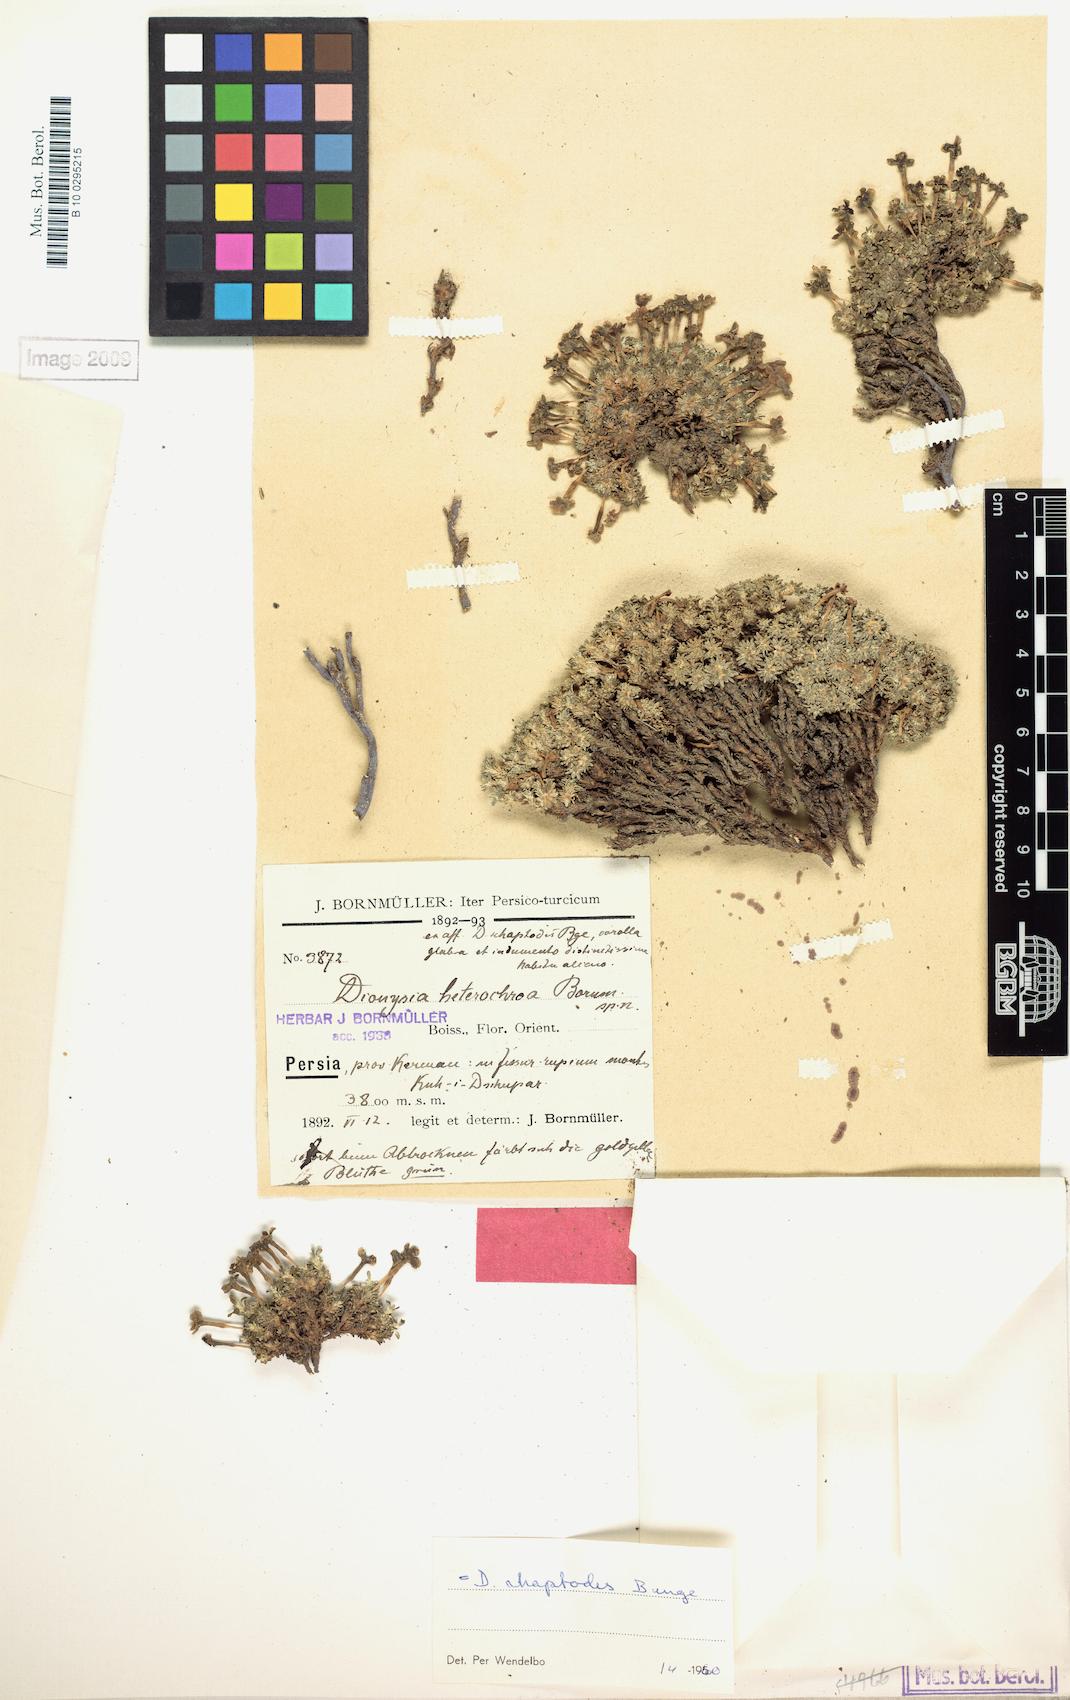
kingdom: Plantae
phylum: Tracheophyta
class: Magnoliopsida
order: Ericales
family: Primulaceae
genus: Dionysia
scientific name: Dionysia rhaptodes
